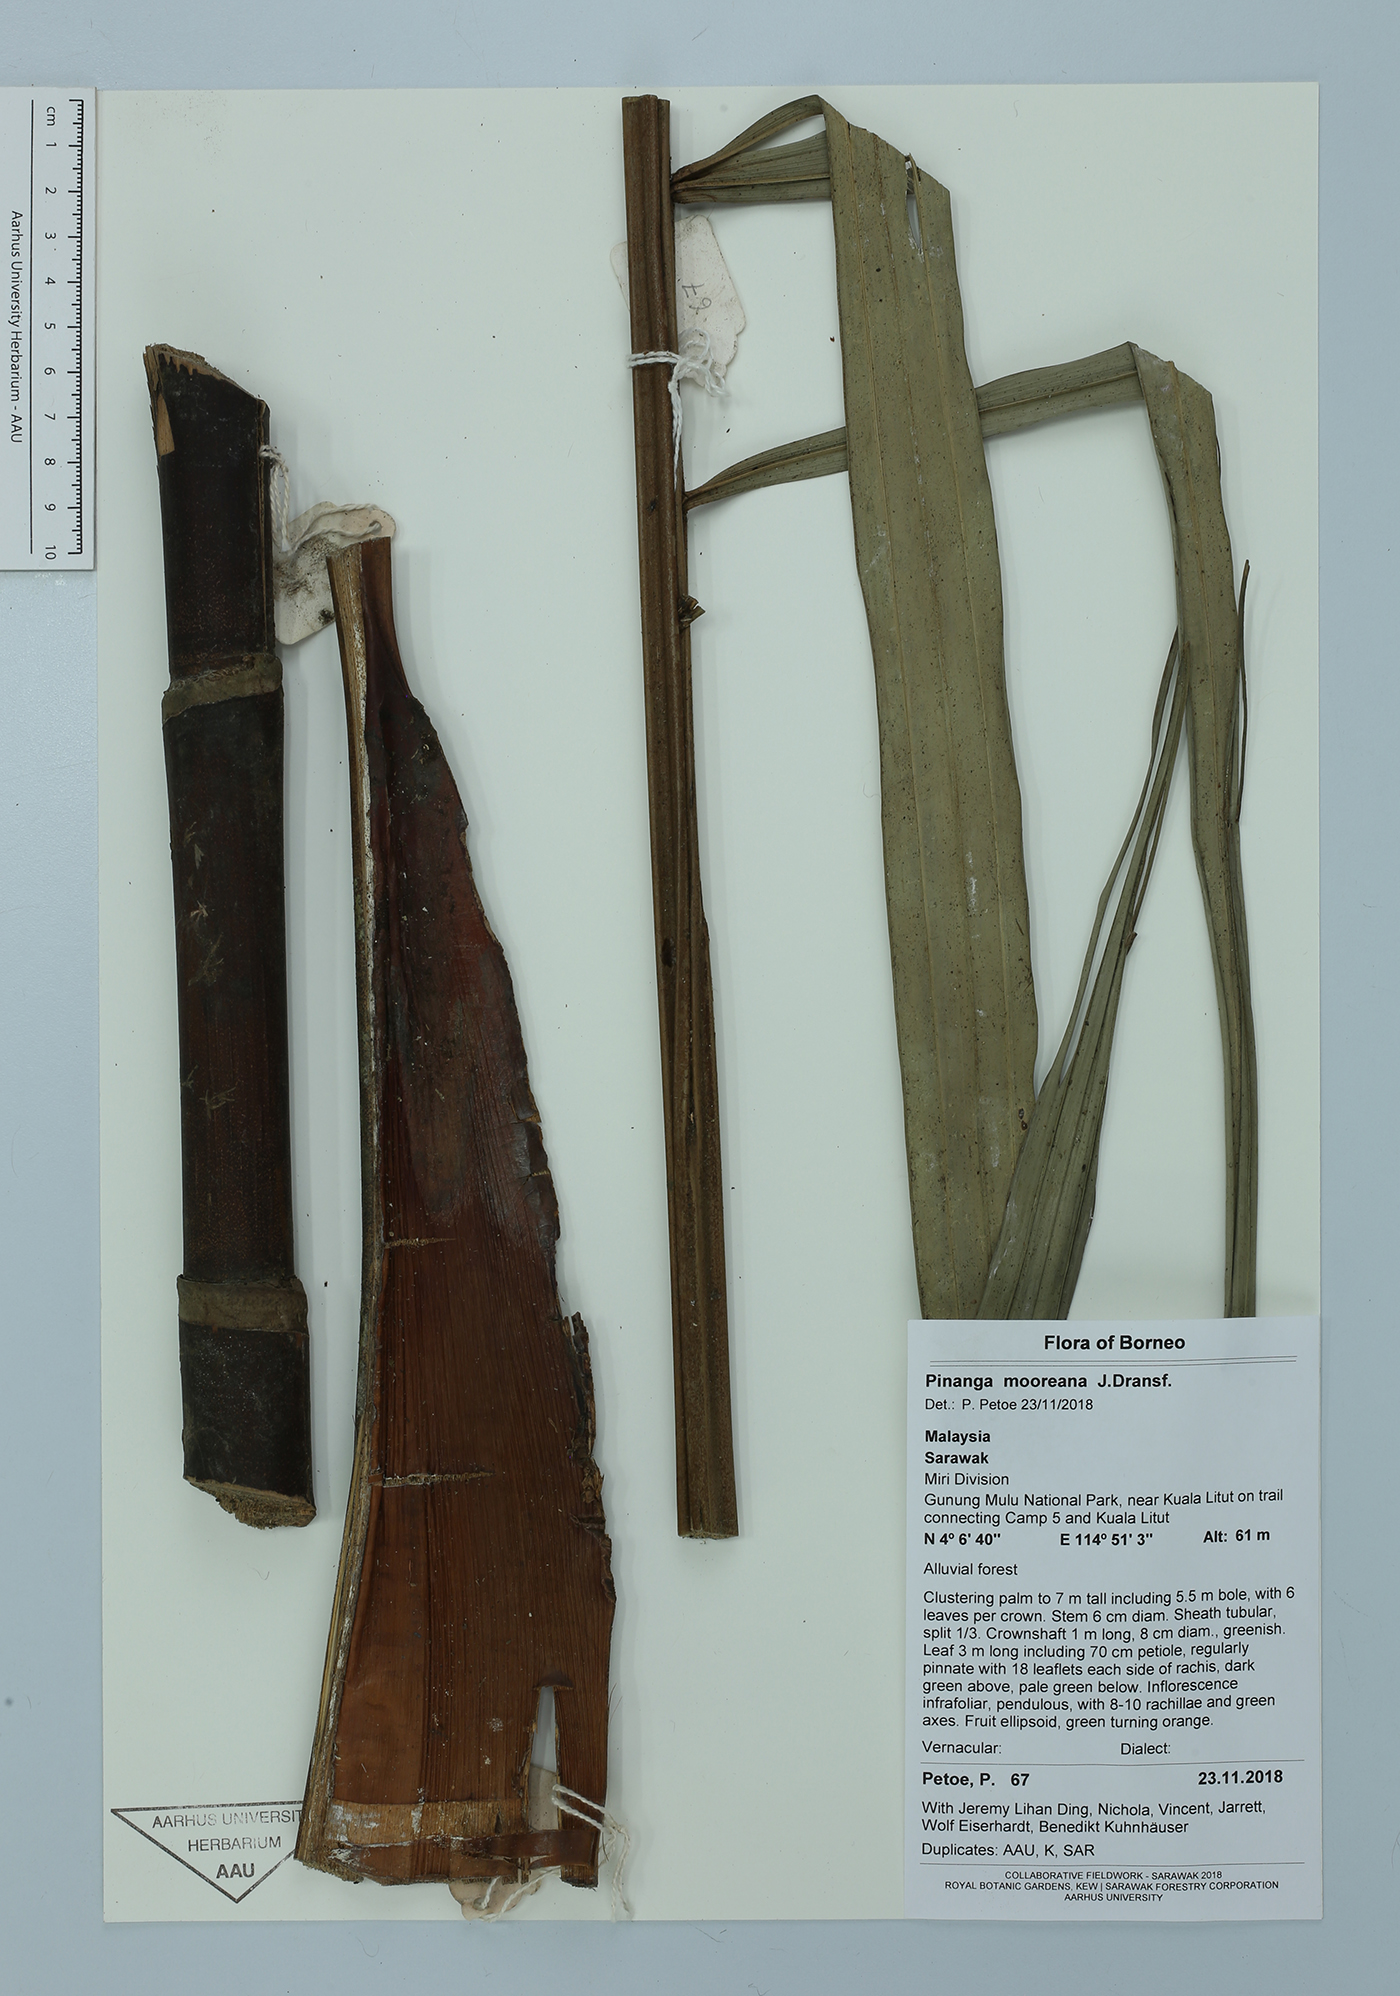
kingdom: Plantae
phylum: Tracheophyta
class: Liliopsida
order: Arecales
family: Arecaceae
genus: Pinanga
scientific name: Pinanga mooreana
